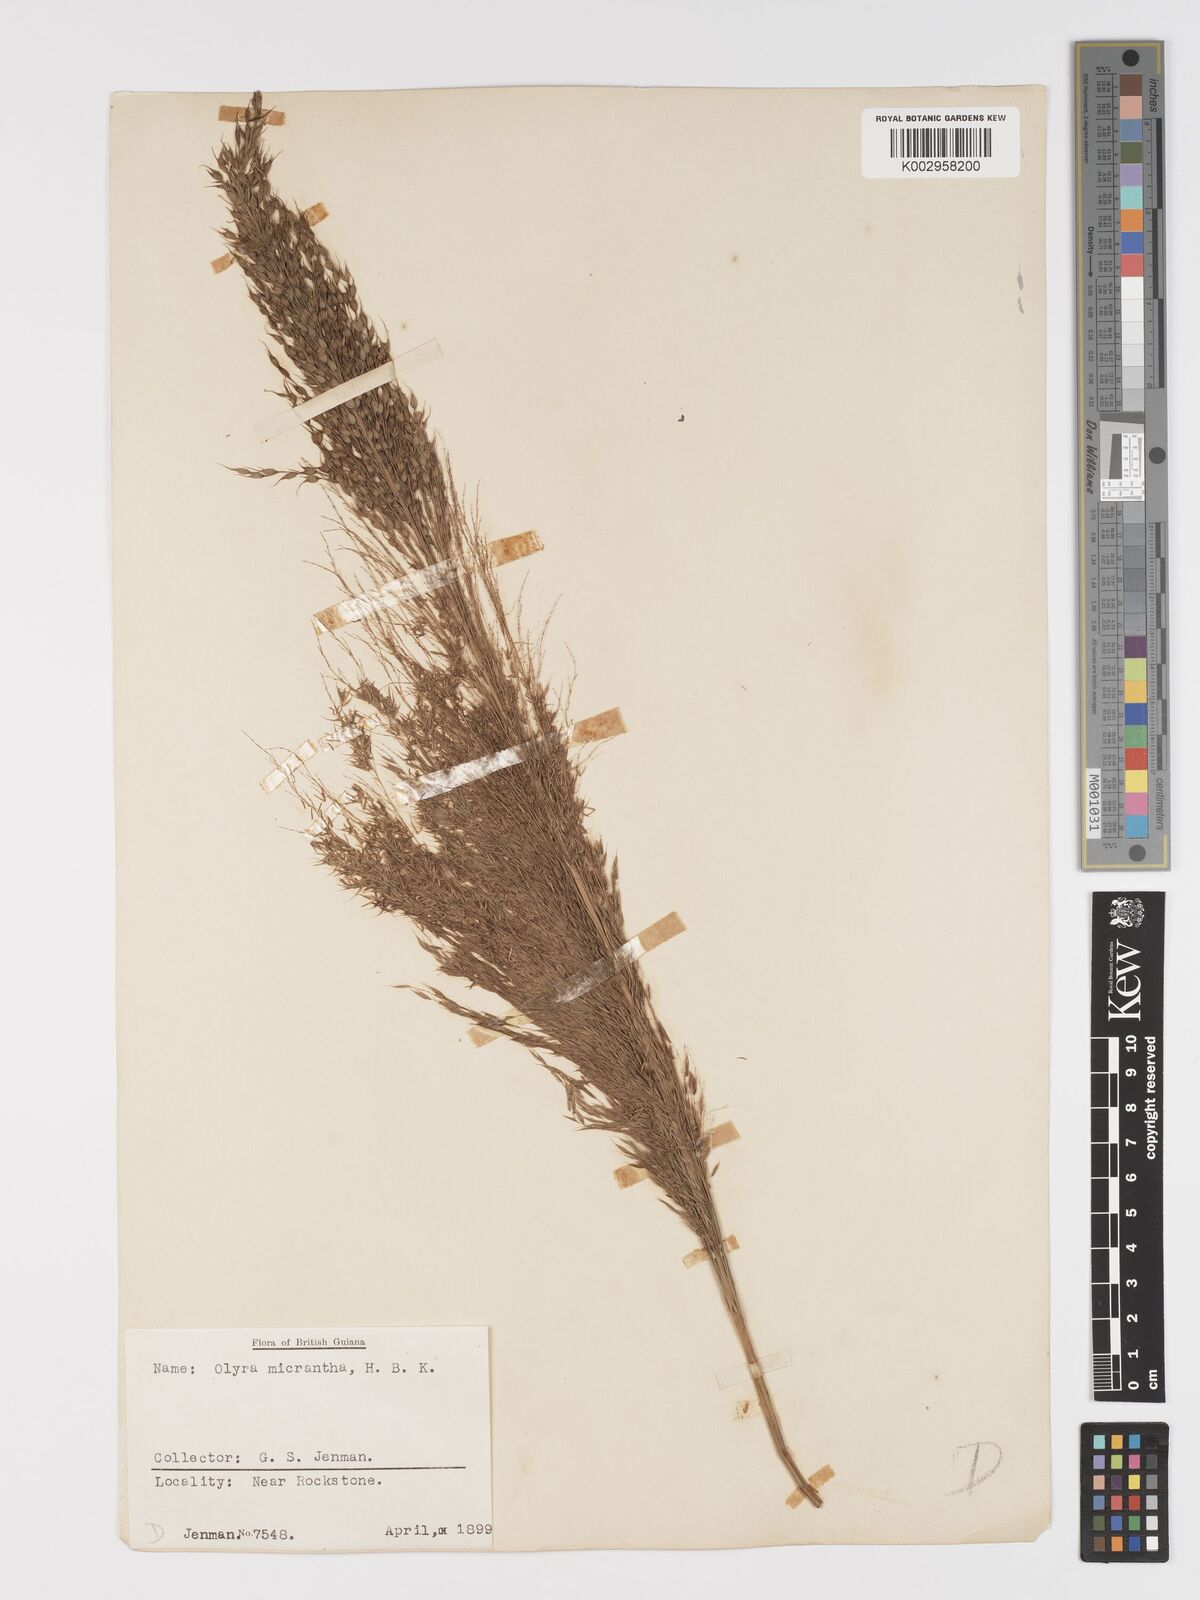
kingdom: Plantae
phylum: Tracheophyta
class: Liliopsida
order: Poales
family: Poaceae
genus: Taquara
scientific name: Taquara micrantha
